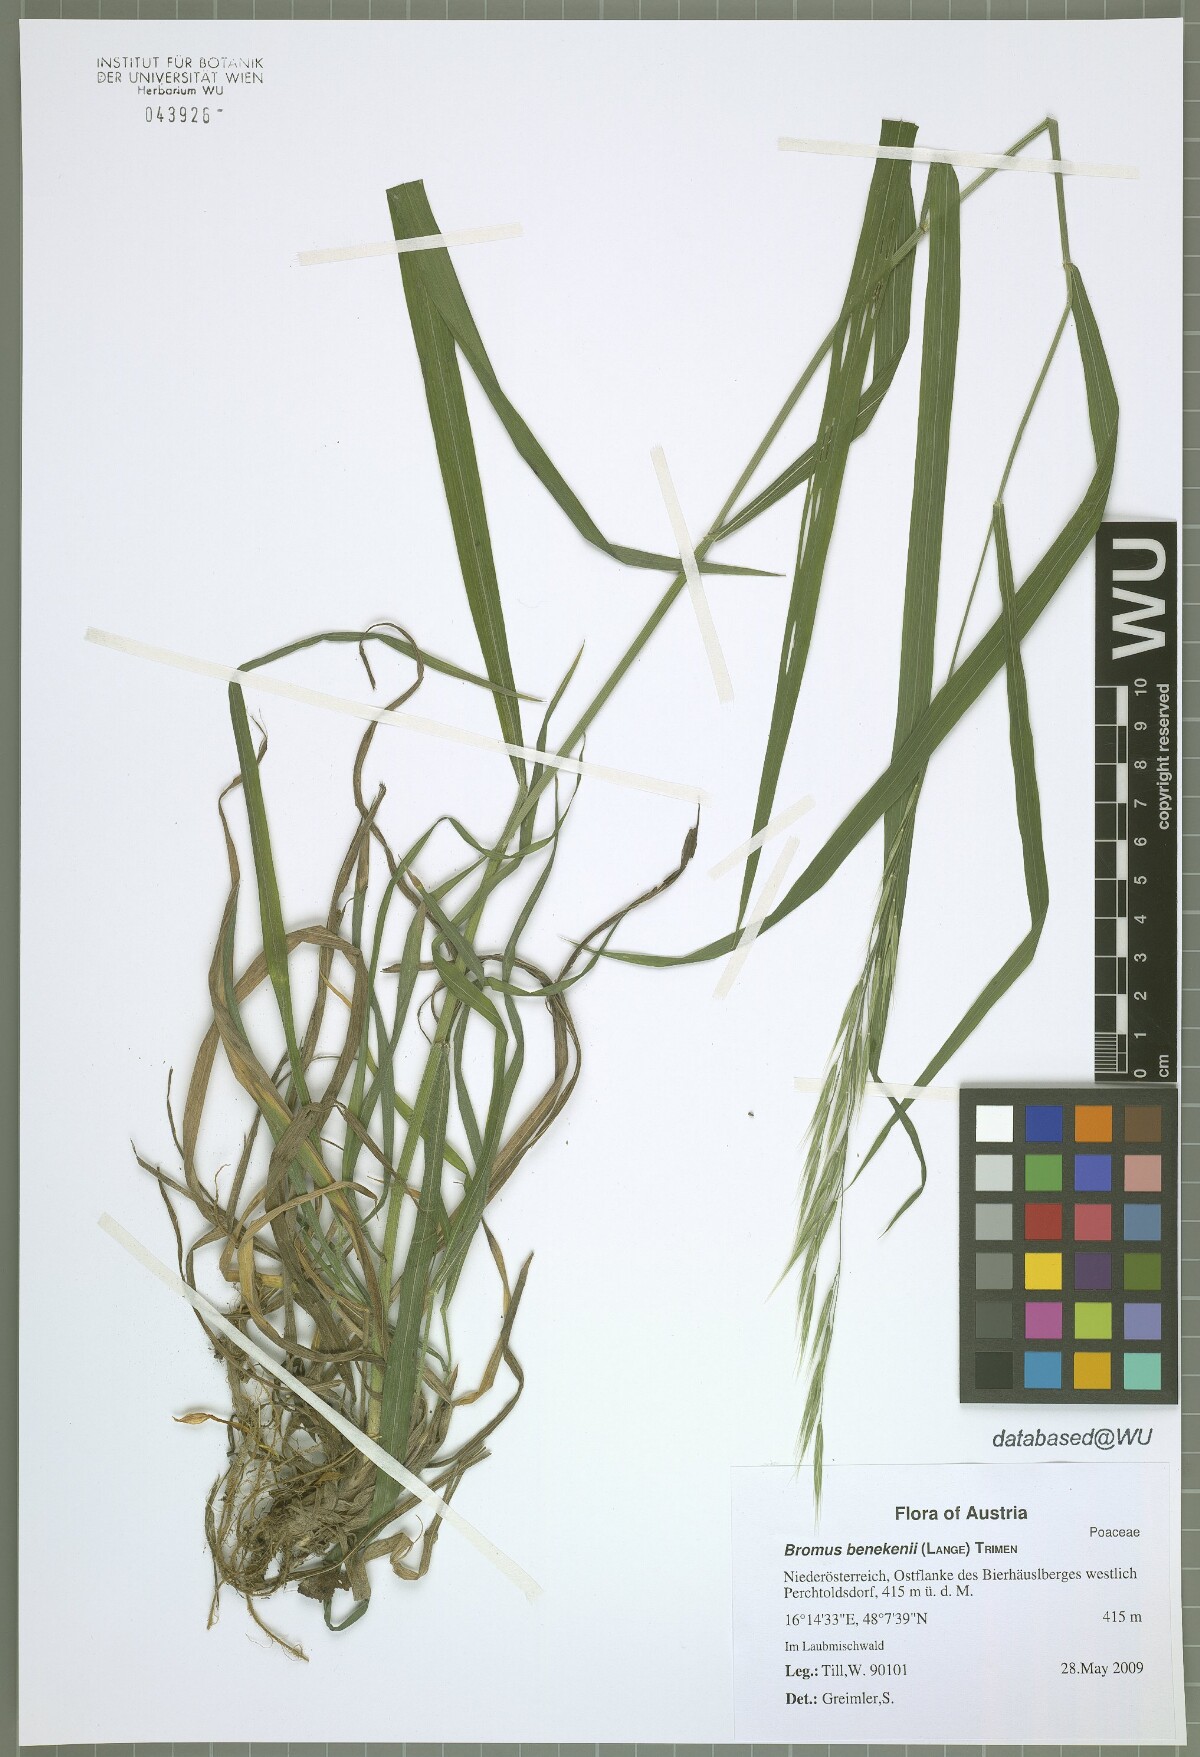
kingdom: Plantae
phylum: Tracheophyta
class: Liliopsida
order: Poales
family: Poaceae
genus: Bromus
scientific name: Bromus benekenii
